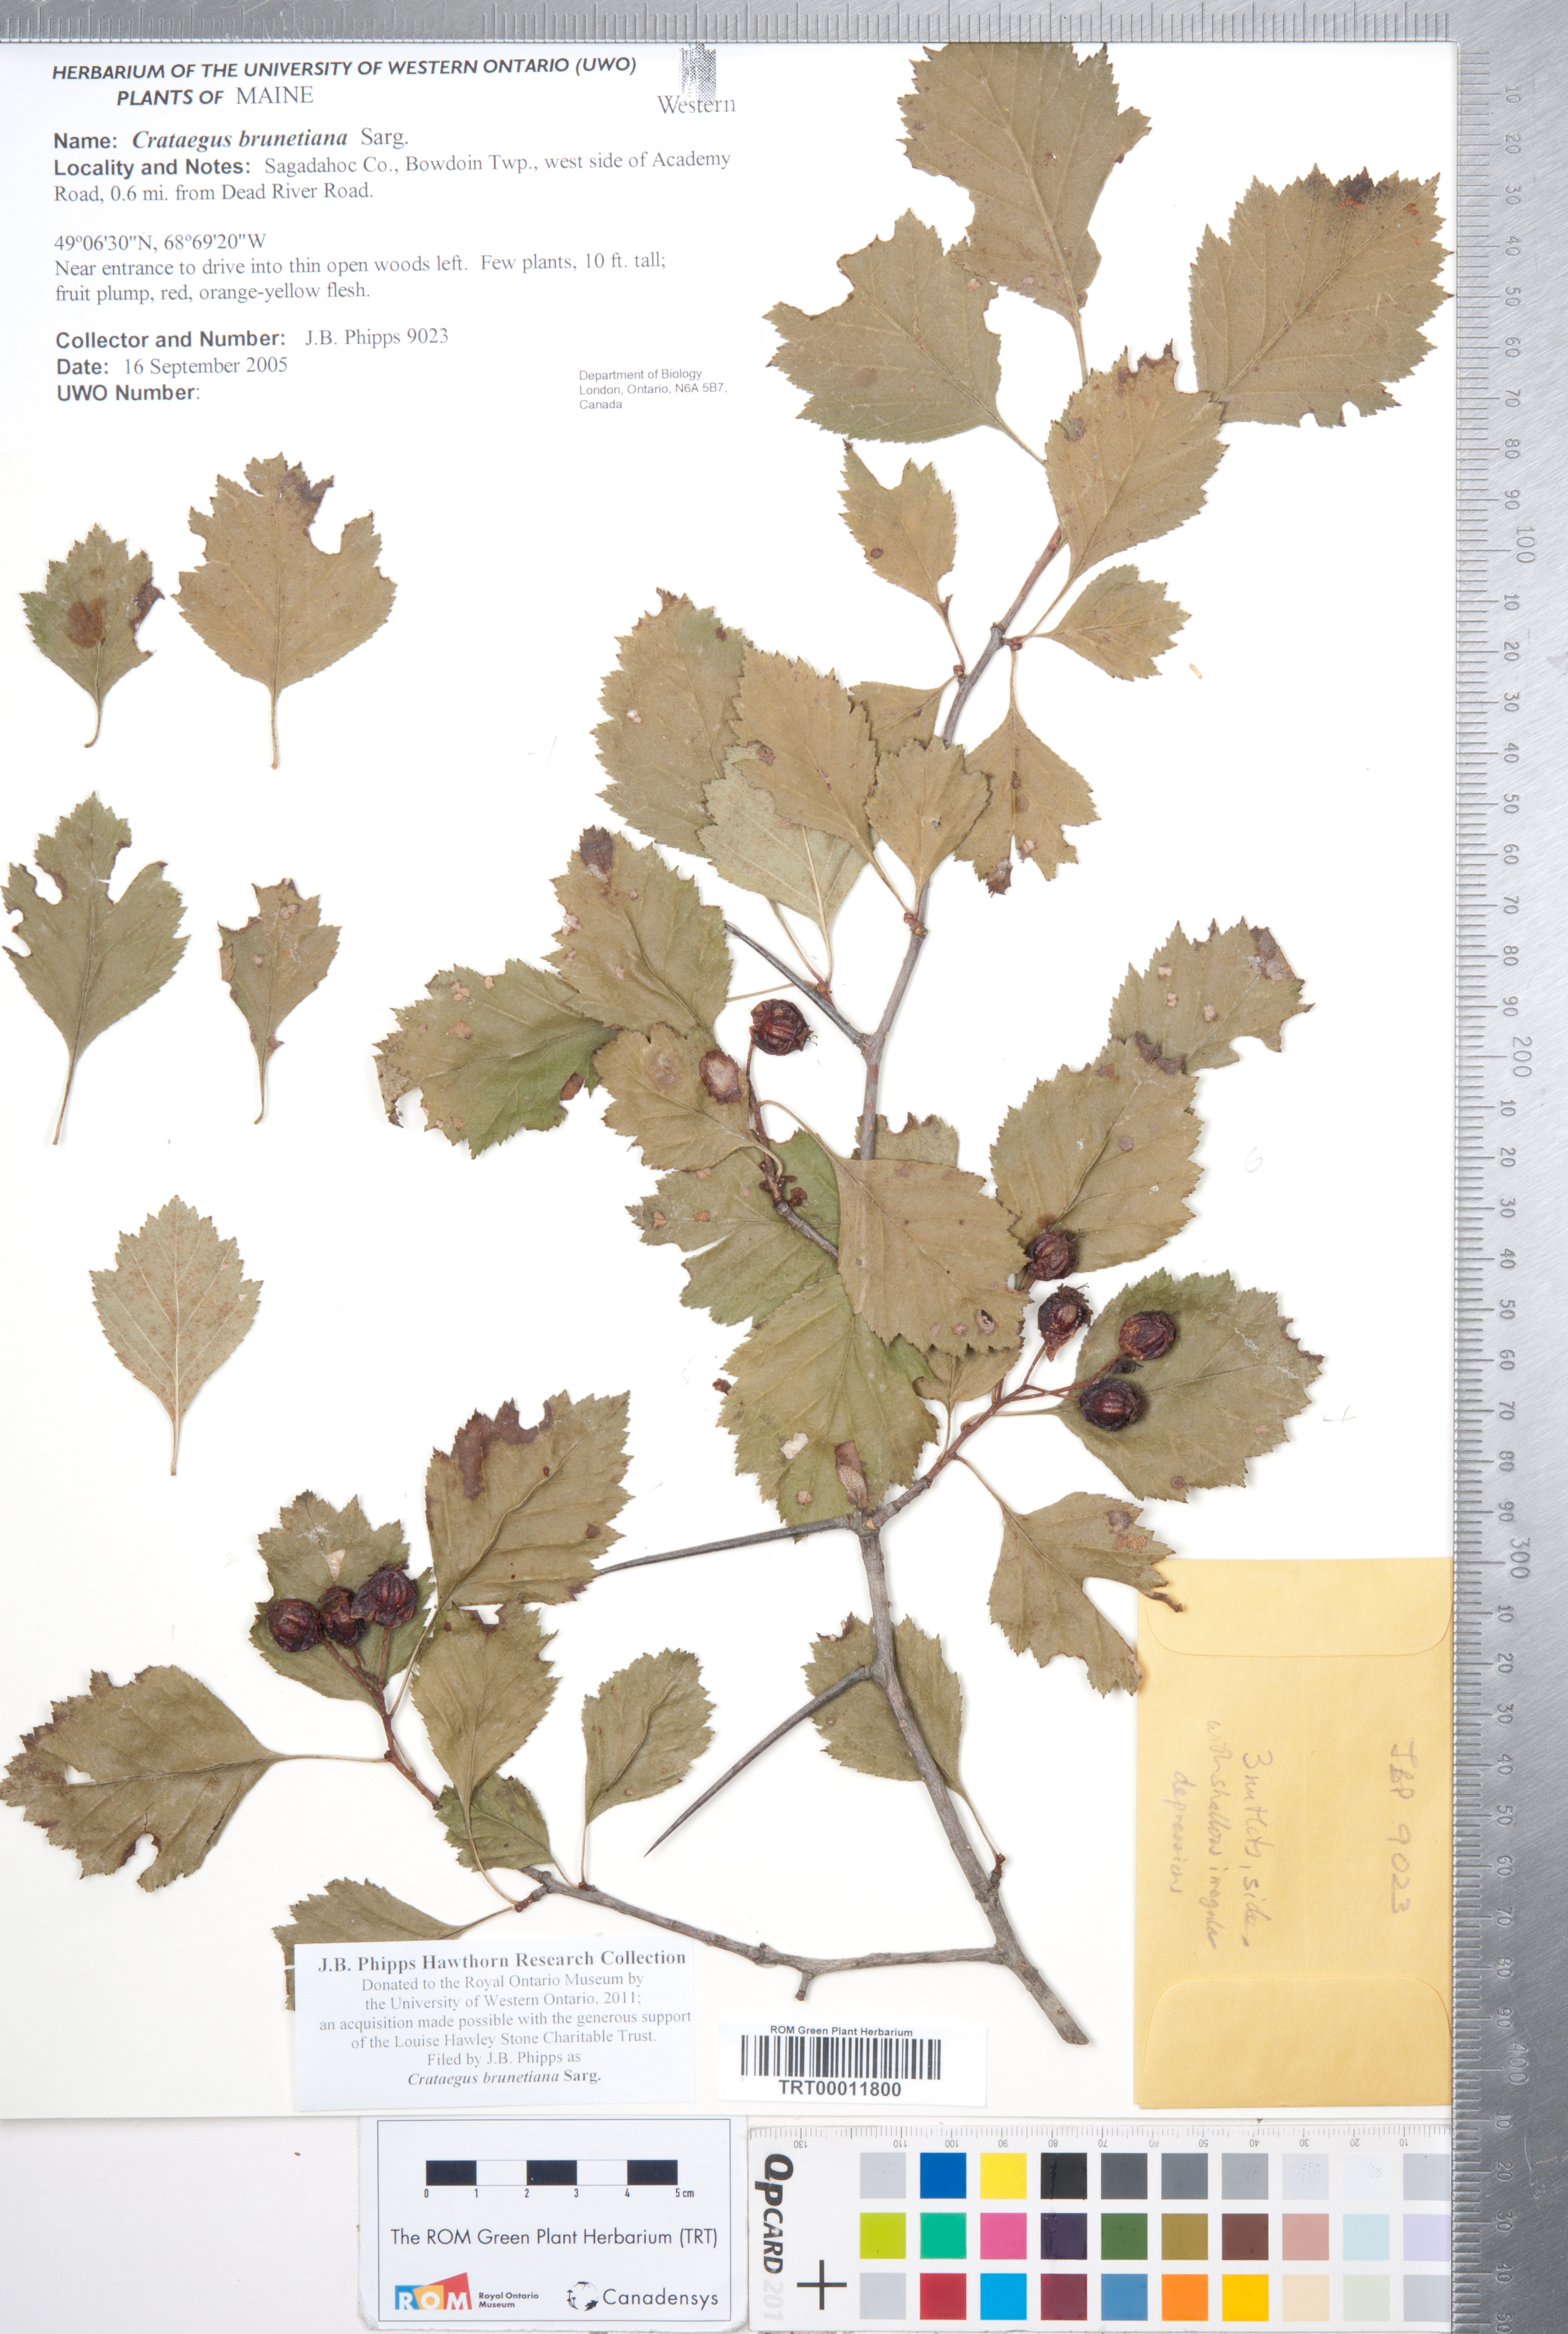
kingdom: Plantae
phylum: Tracheophyta
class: Magnoliopsida
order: Rosales
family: Rosaceae
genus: Crataegus
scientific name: Crataegus chrysocarpa
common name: Fire-berry hawthorn
